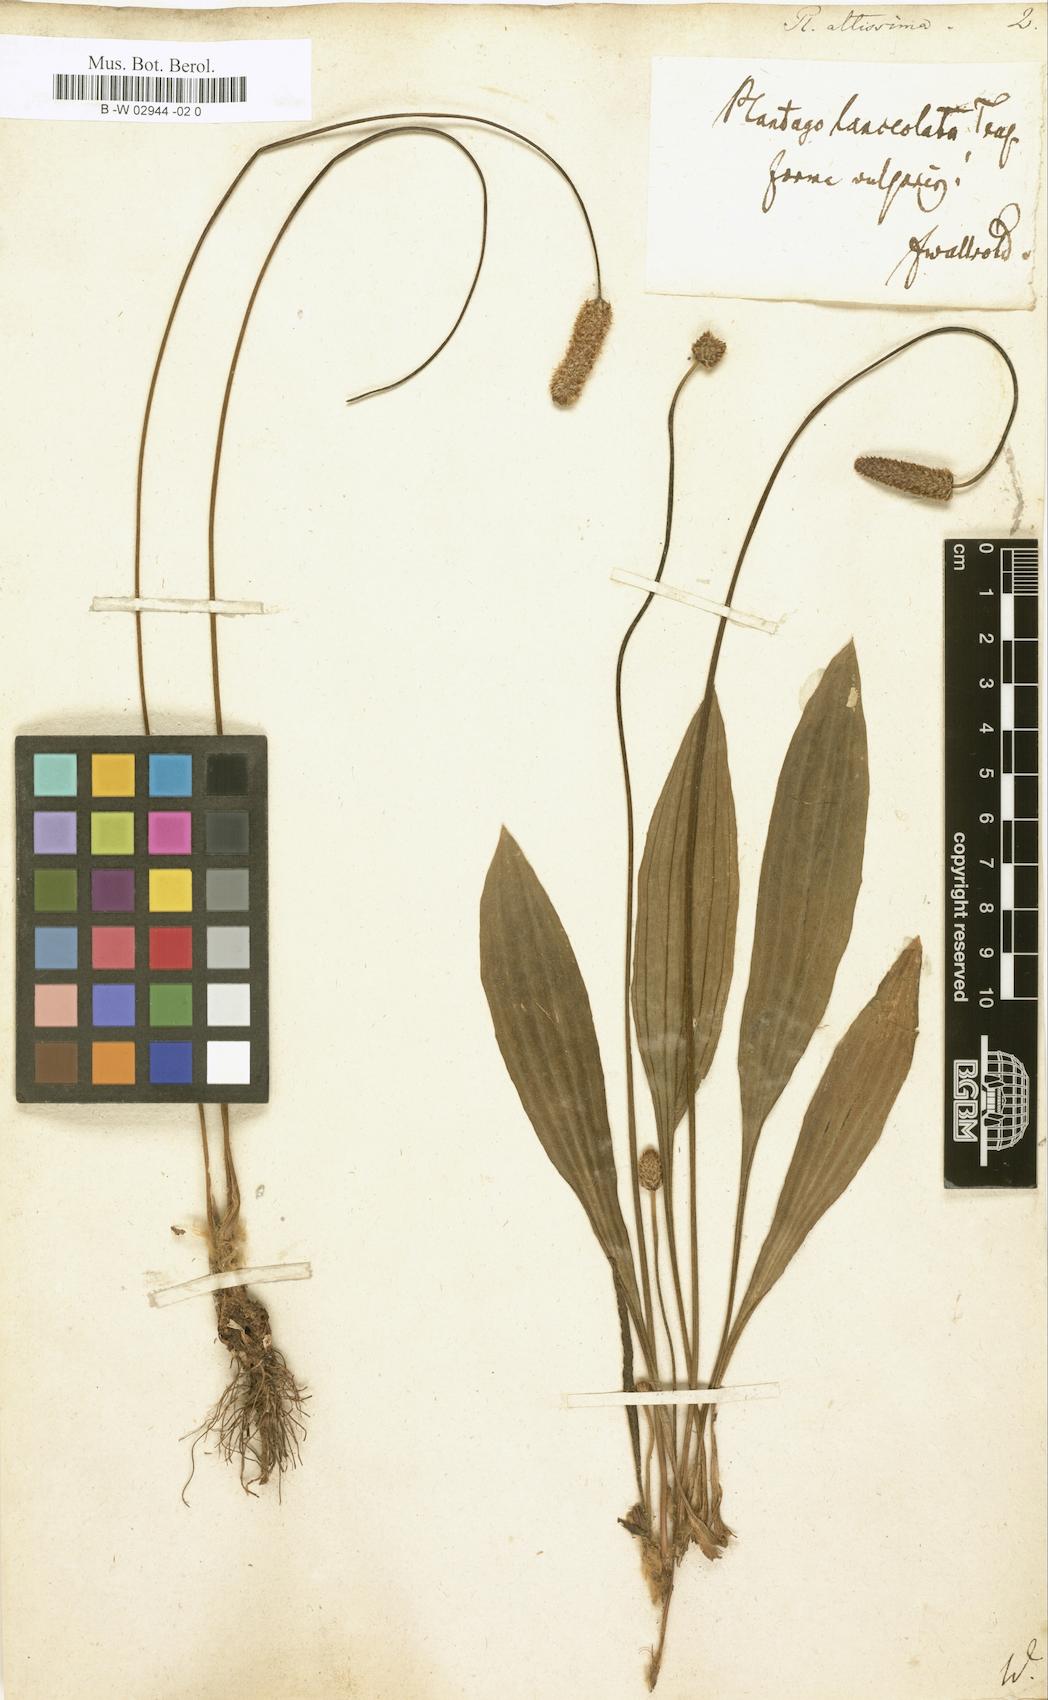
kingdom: Plantae
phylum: Tracheophyta
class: Magnoliopsida
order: Lamiales
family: Plantaginaceae
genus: Plantago
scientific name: Plantago altissima
